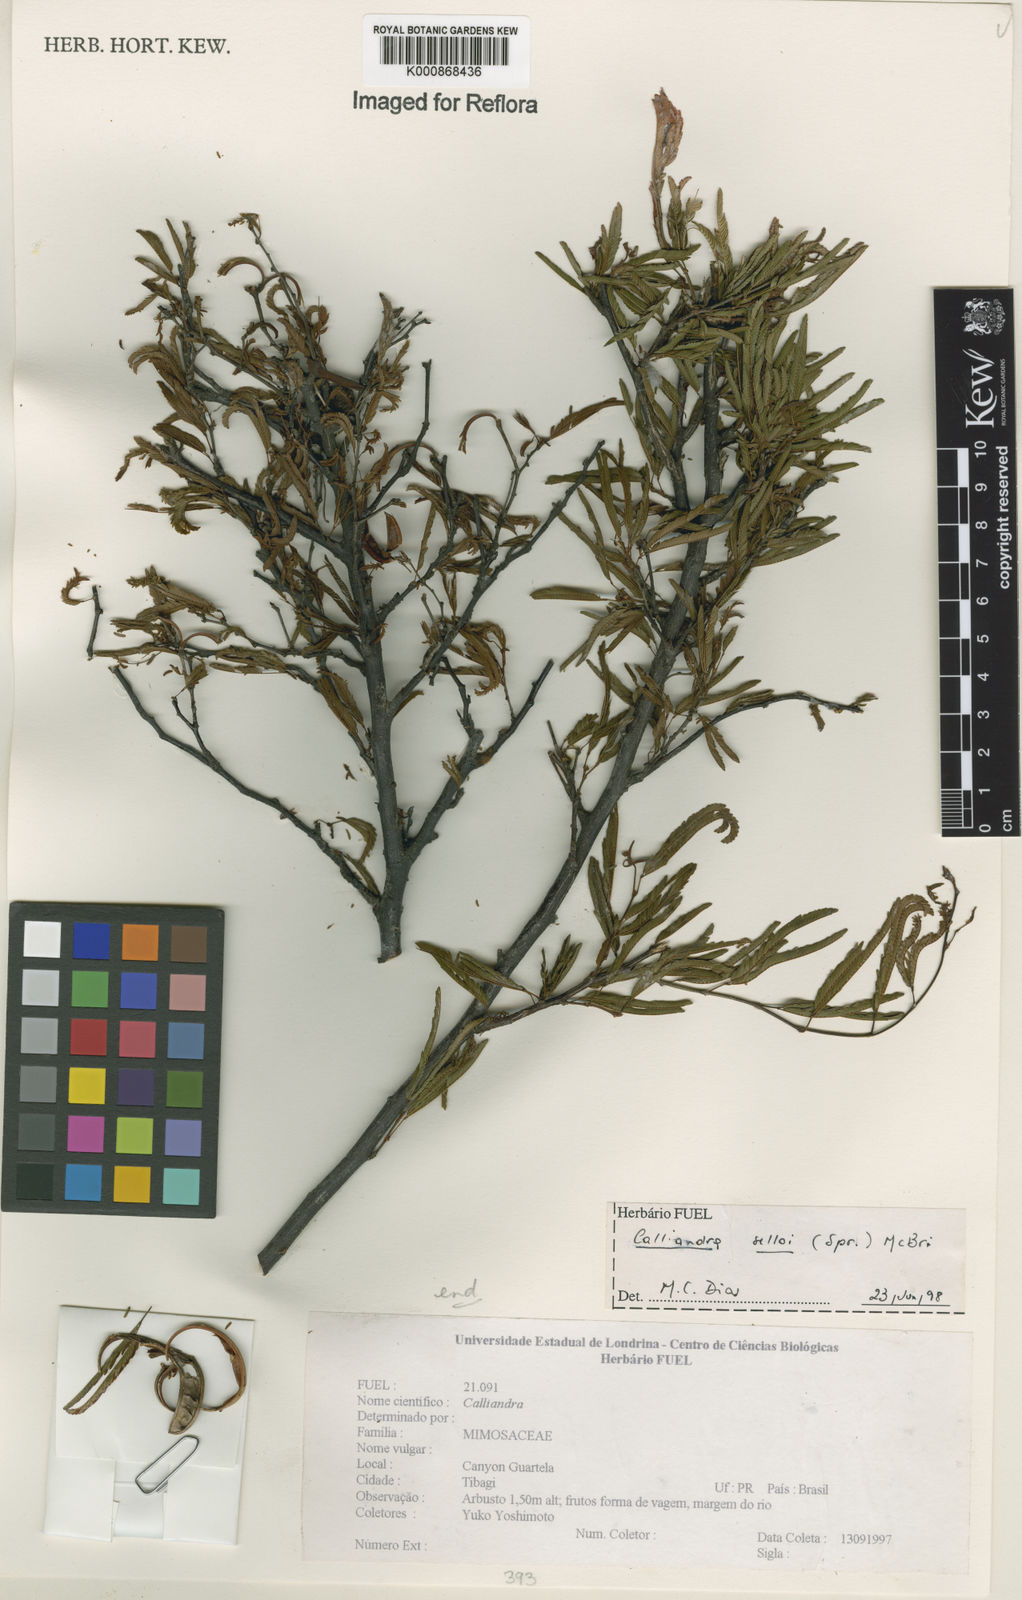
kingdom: Plantae
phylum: Tracheophyta
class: Magnoliopsida
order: Fabales
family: Fabaceae
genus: Calliandra
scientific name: Calliandra selloi
